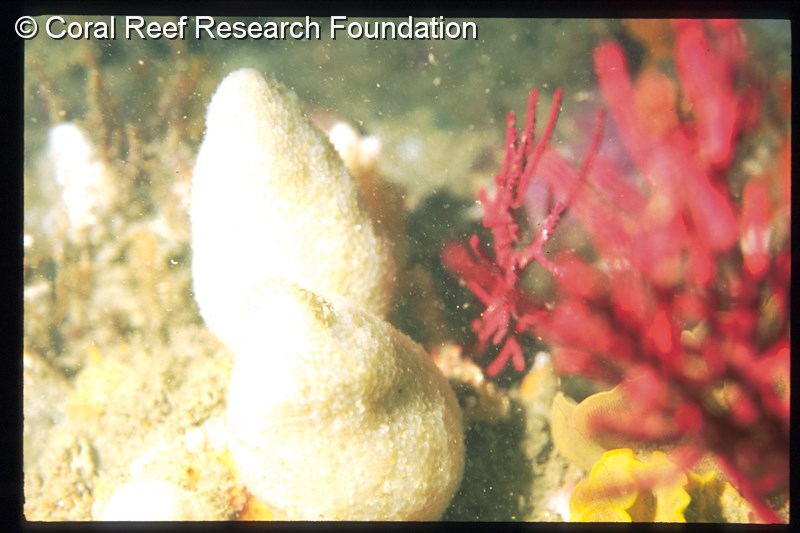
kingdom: Animalia
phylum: Chordata
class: Ascidiacea
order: Aplousobranchia
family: Pseudodistomidae
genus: Pseudodistoma
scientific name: Pseudodistoma africanum
